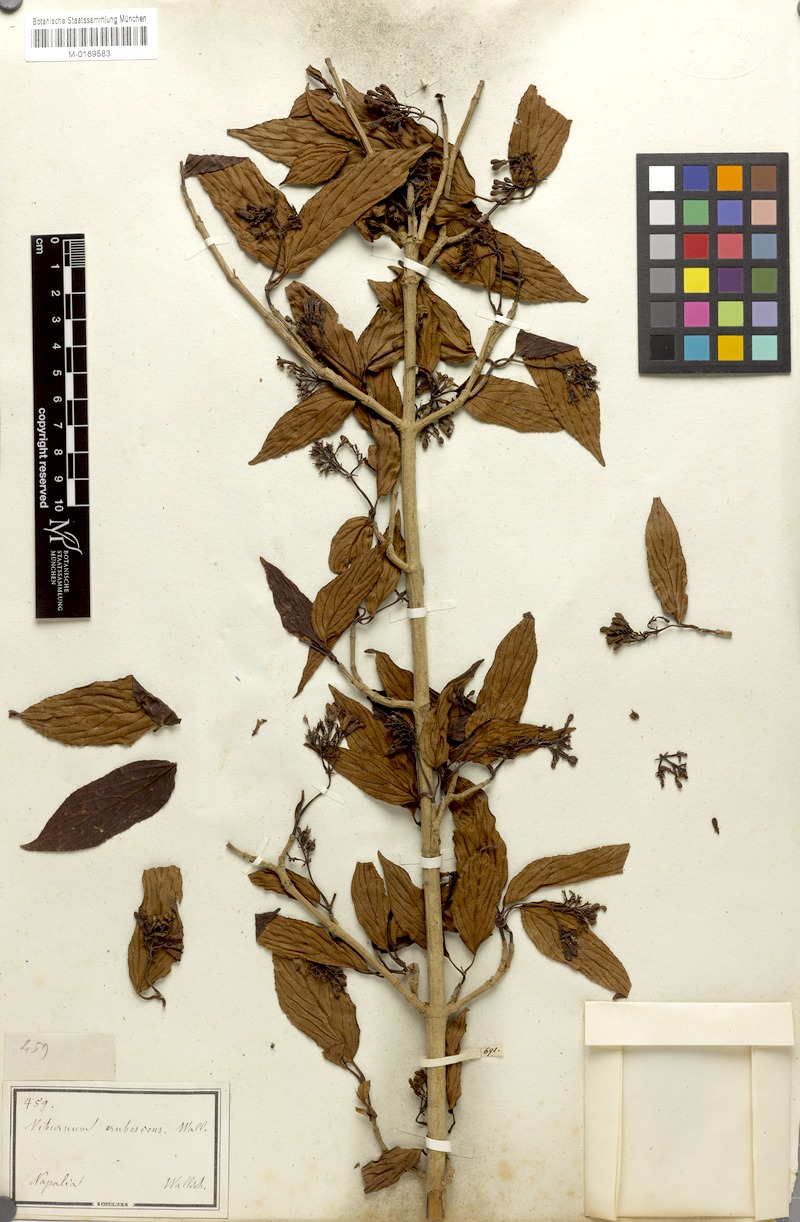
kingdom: Plantae
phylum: Tracheophyta
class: Magnoliopsida
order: Dipsacales
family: Viburnaceae
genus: Viburnum
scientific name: Viburnum erubescens
